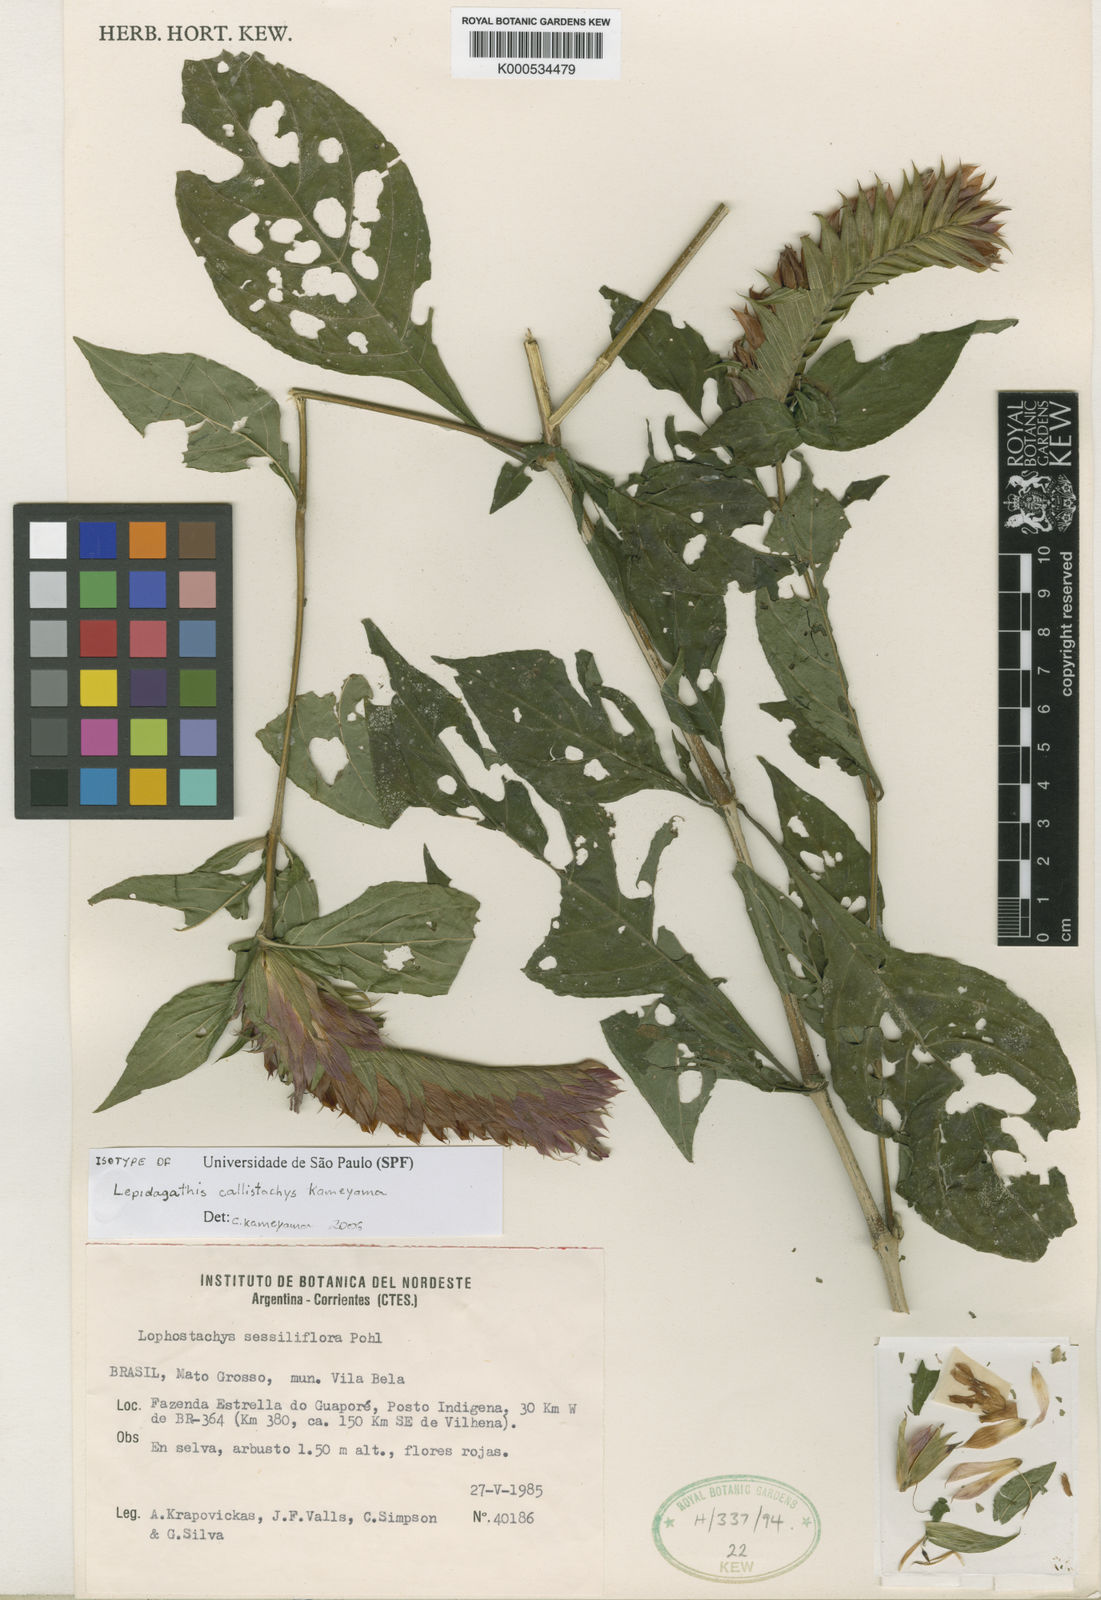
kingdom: Plantae
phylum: Tracheophyta
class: Magnoliopsida
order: Lamiales
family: Acanthaceae
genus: Lepidagathis
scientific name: Lepidagathis callistachys
